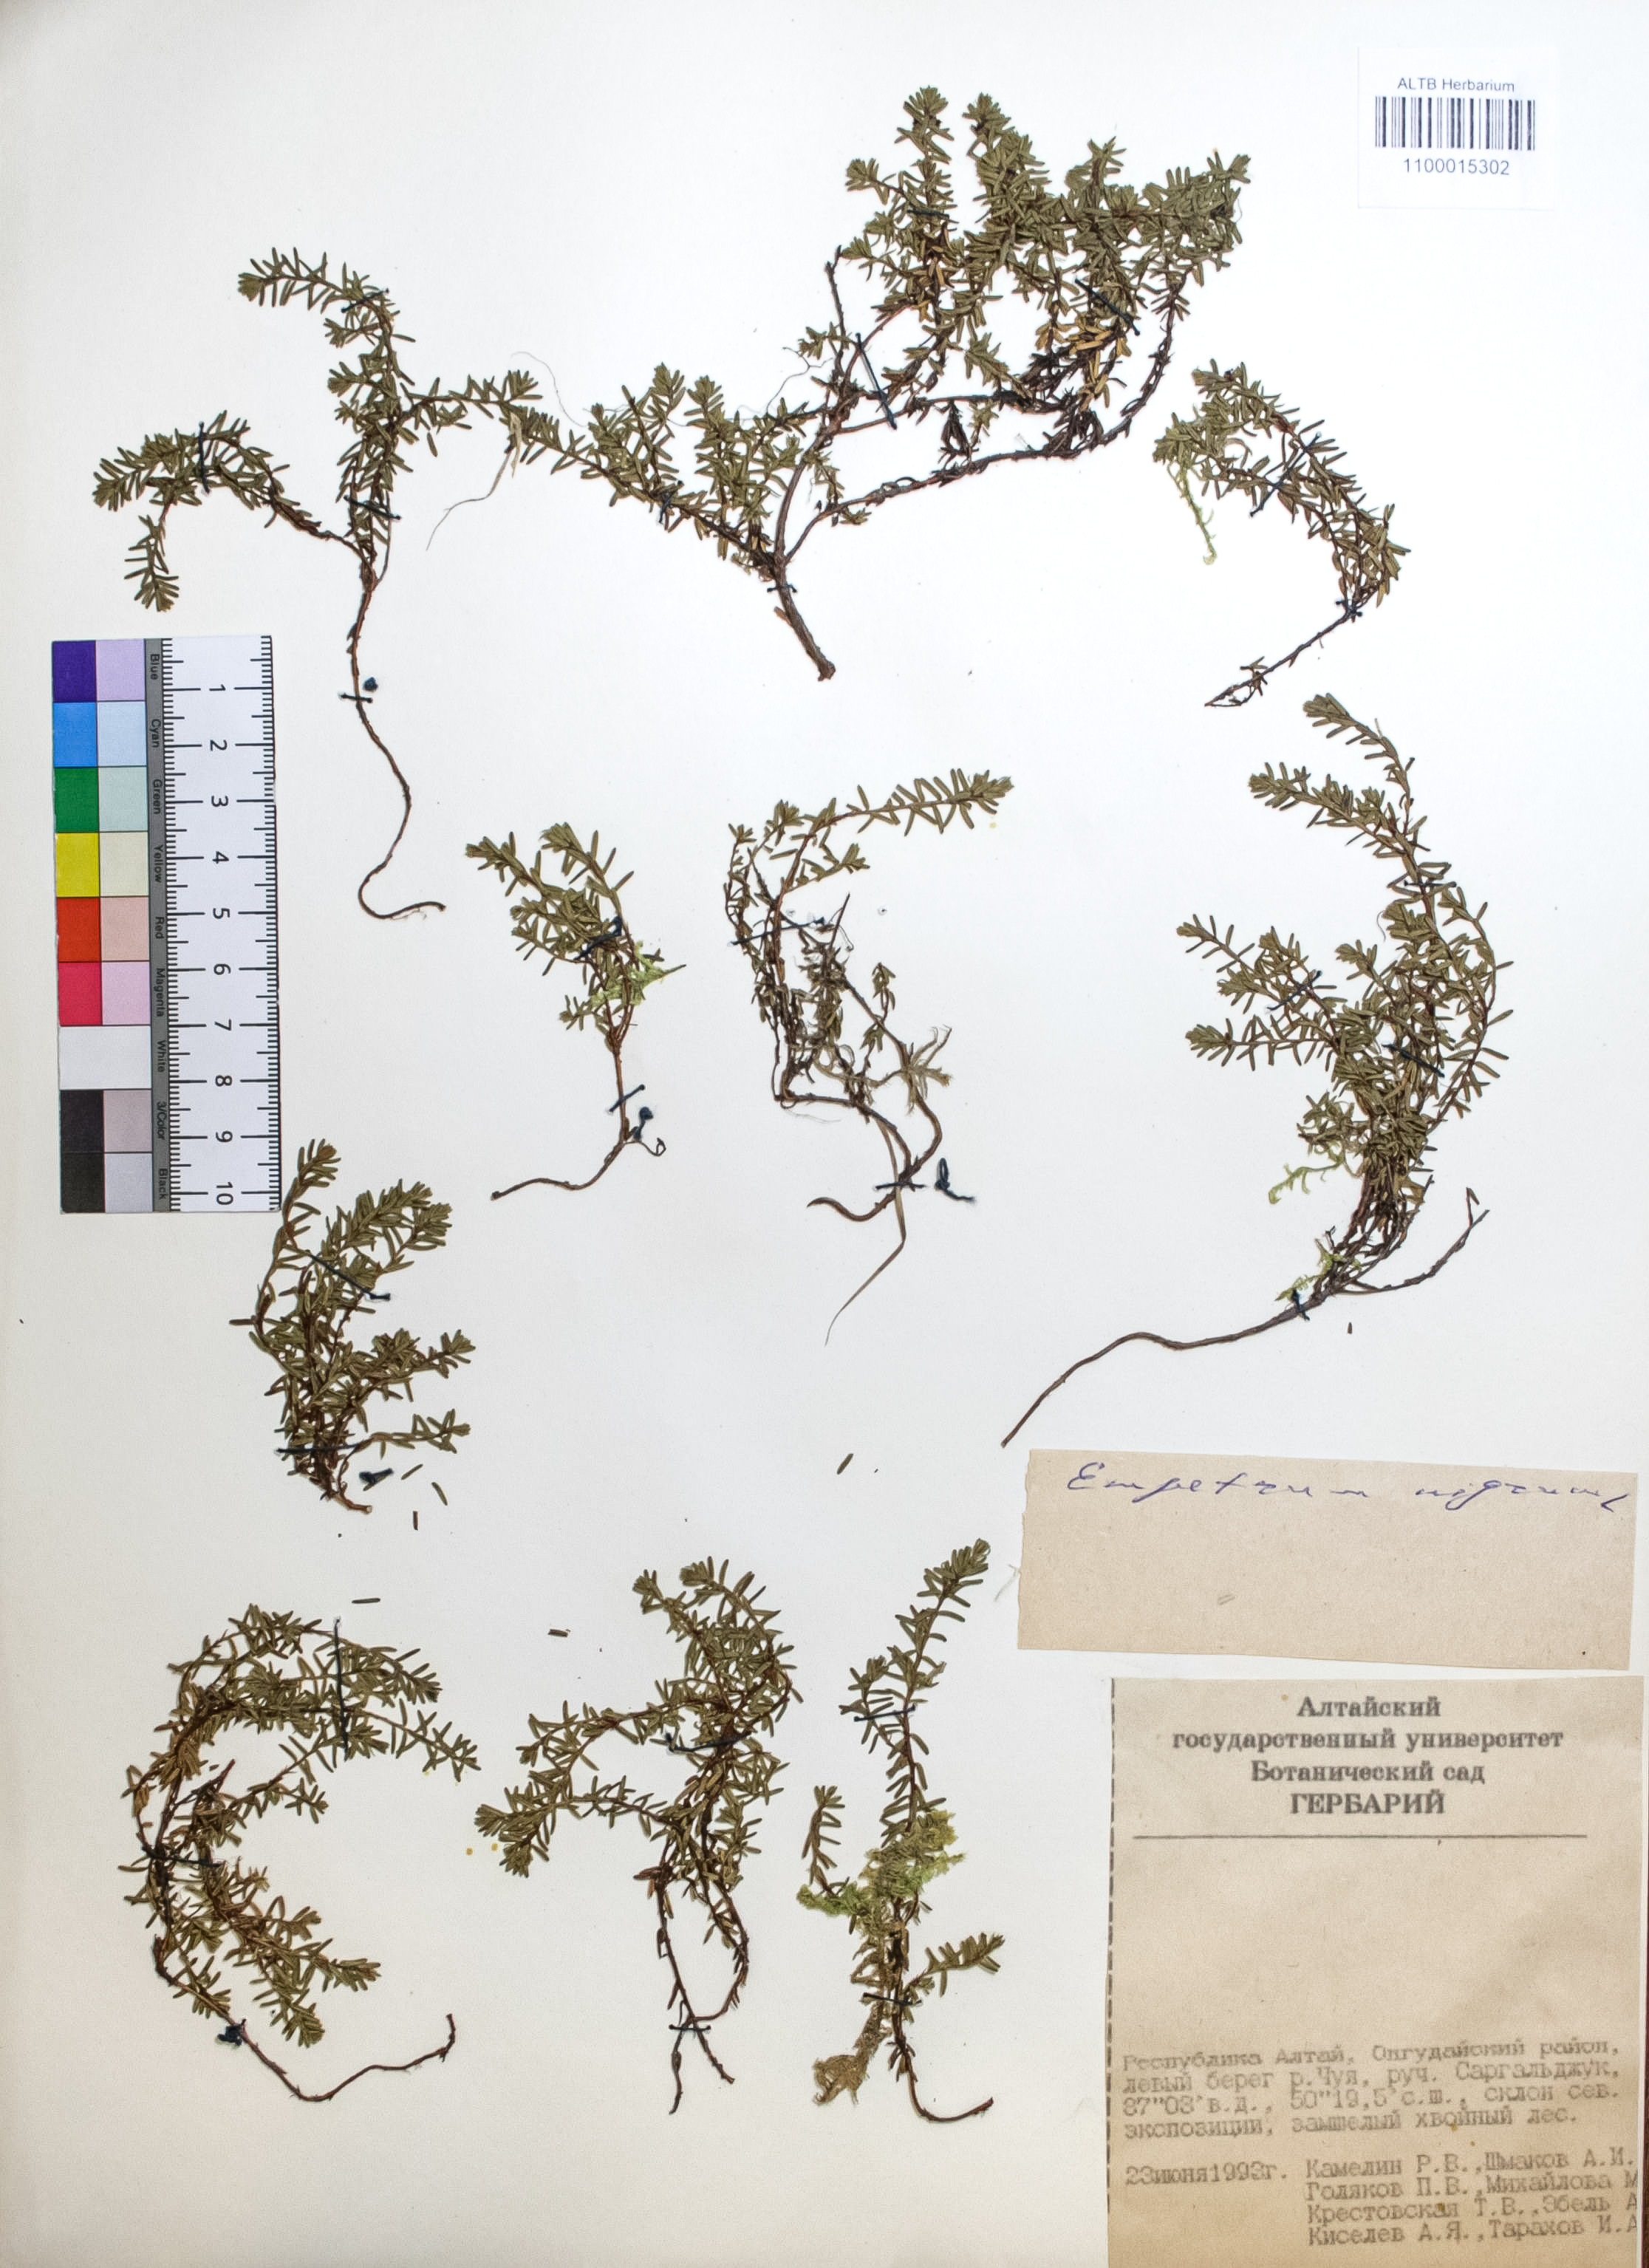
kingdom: Plantae
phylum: Tracheophyta
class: Magnoliopsida
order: Ericales
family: Ericaceae
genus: Empetrum
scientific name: Empetrum nigrum
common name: Black crowberry
